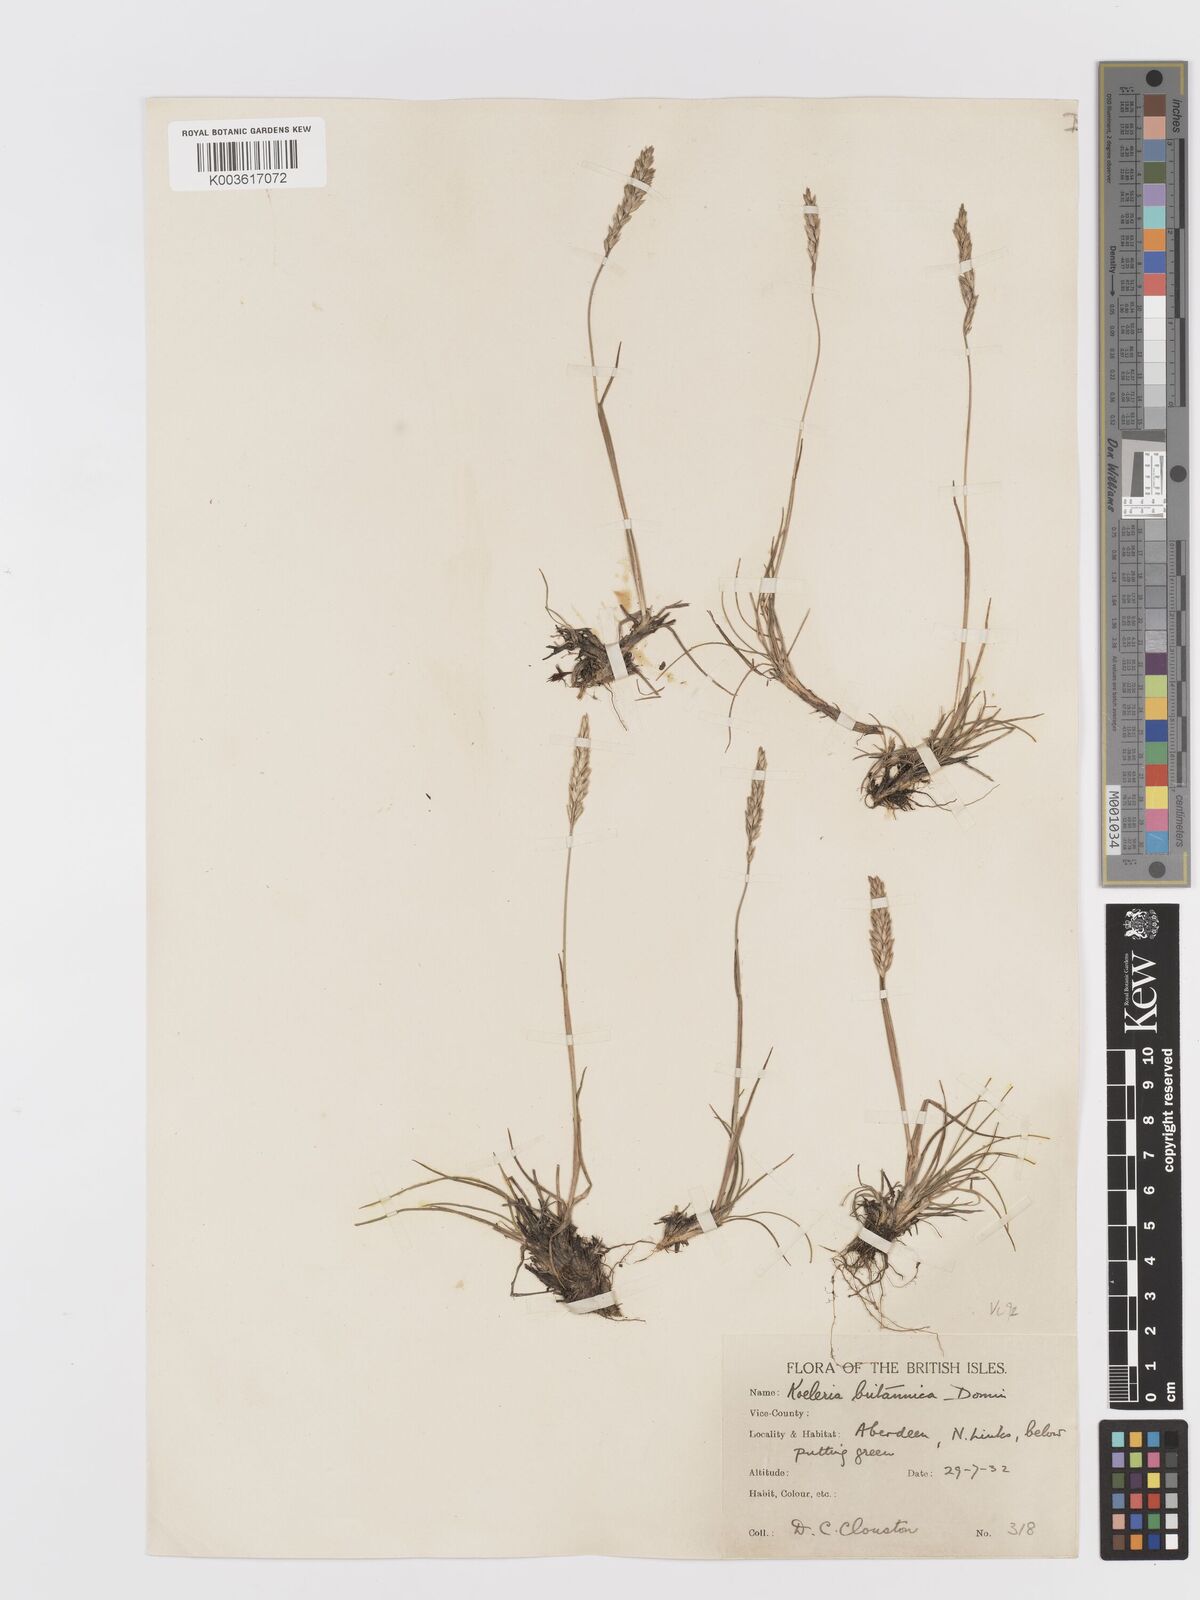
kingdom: Plantae
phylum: Tracheophyta
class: Liliopsida
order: Poales
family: Poaceae
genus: Koeleria
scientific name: Koeleria macrantha
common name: Crested hair-grass
